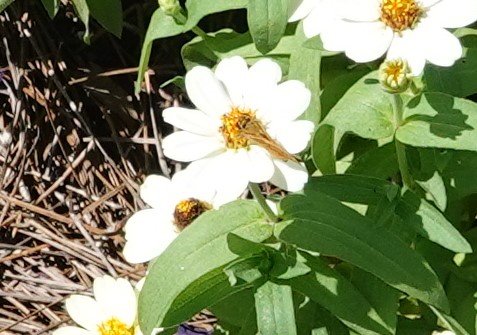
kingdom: Animalia
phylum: Arthropoda
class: Insecta
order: Lepidoptera
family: Hesperiidae
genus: Hylephila
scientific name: Hylephila phyleus
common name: Fiery Skipper
